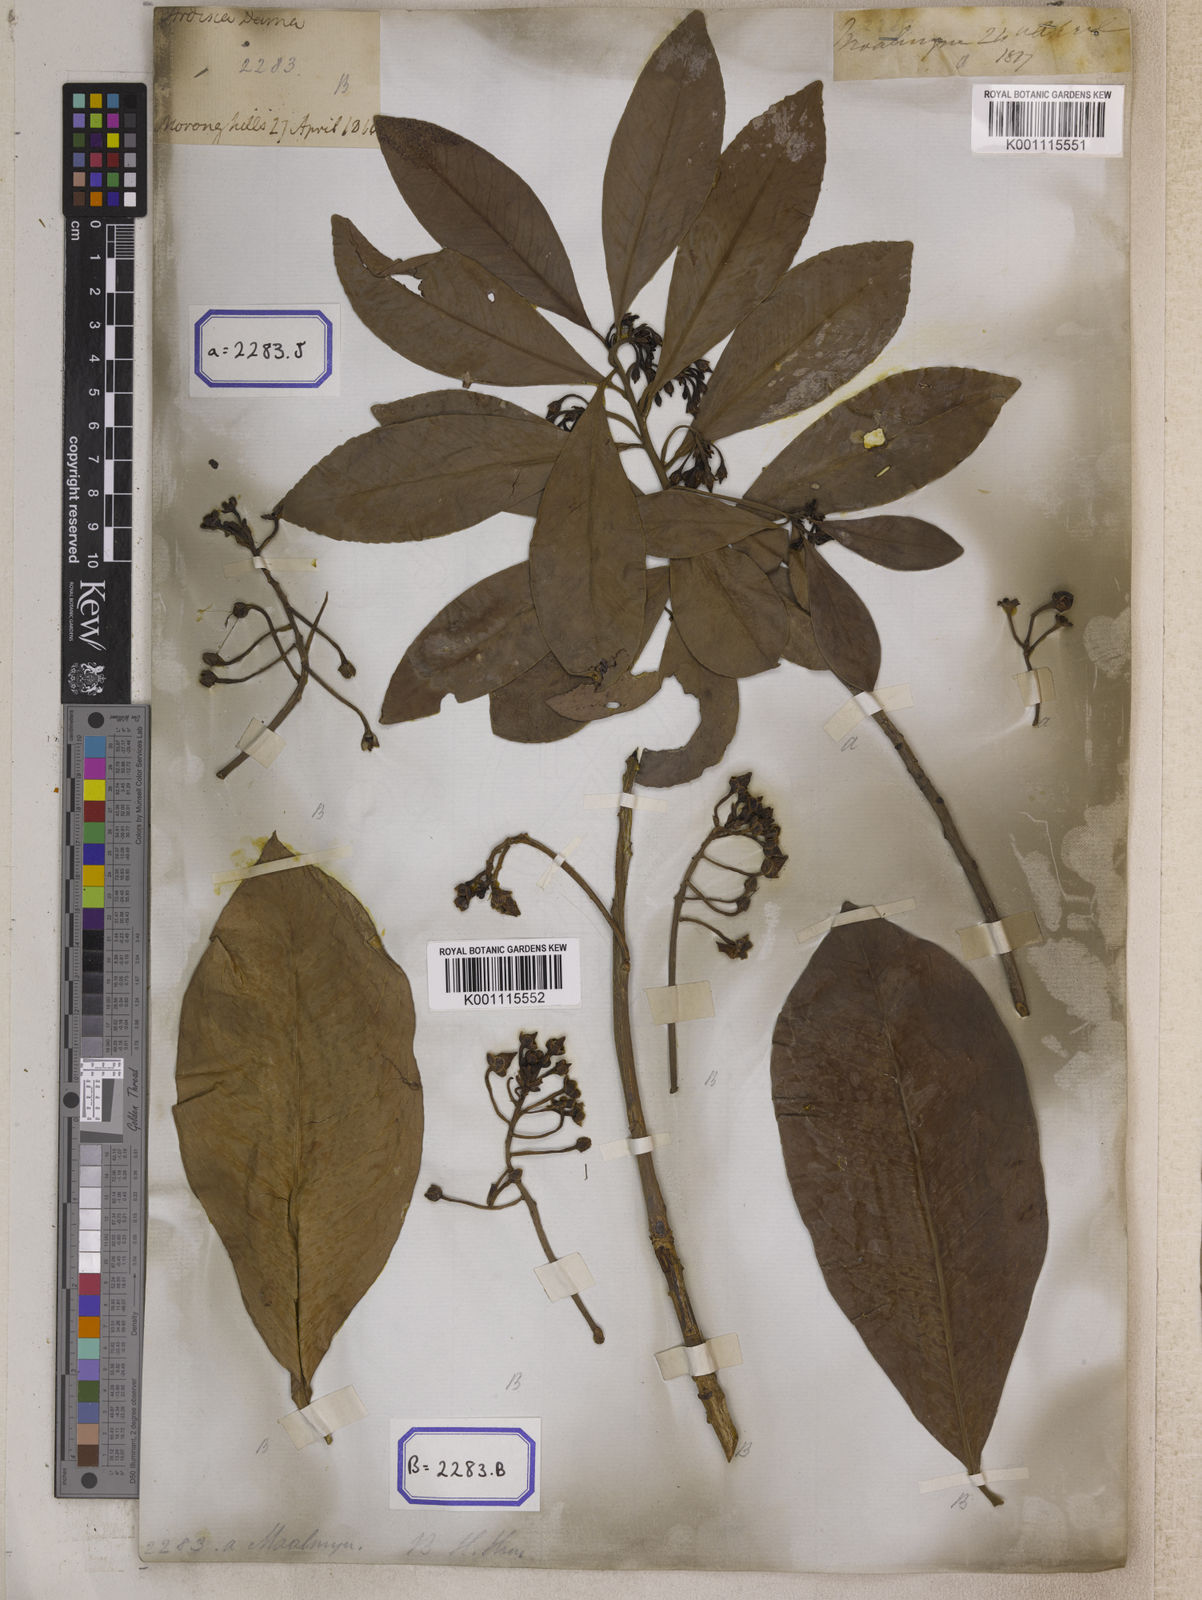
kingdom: Plantae
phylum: Tracheophyta
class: Magnoliopsida
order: Ericales
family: Primulaceae
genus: Ardisia
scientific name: Ardisia humilis
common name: Low shoebutton
